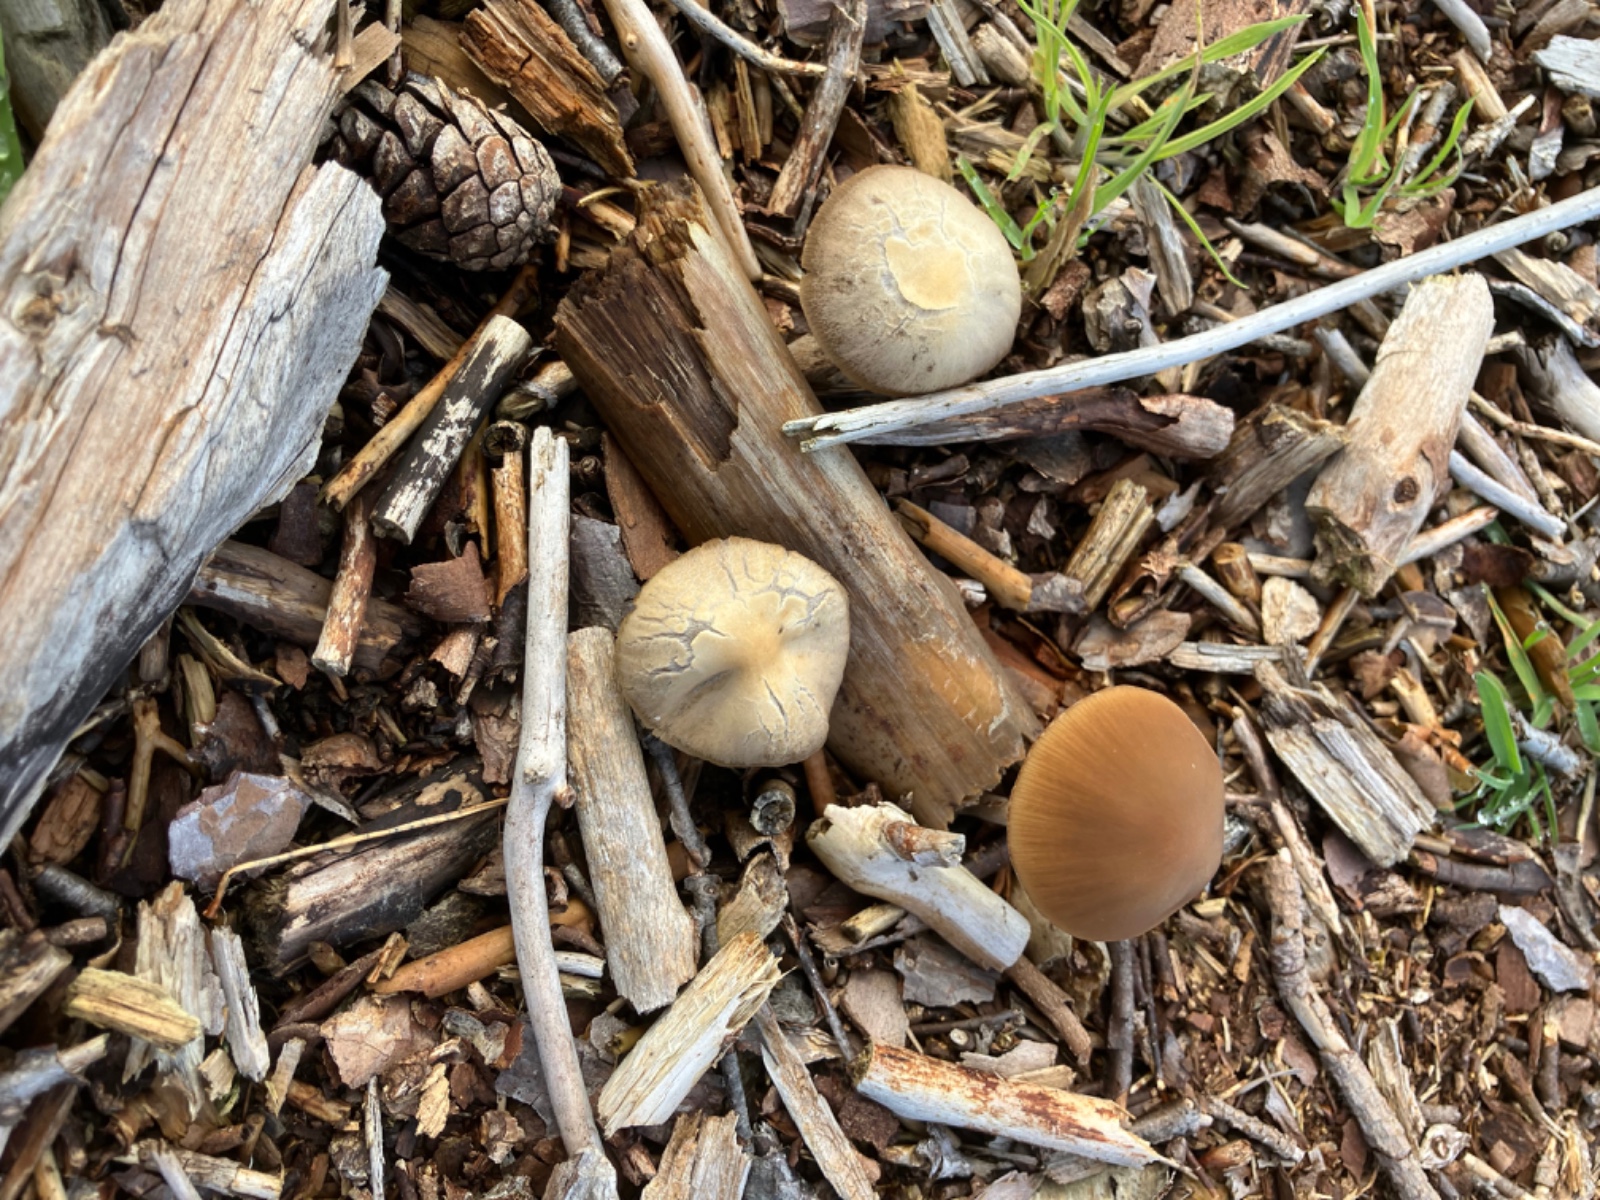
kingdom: Fungi
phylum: Basidiomycota
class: Agaricomycetes
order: Agaricales
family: Psathyrellaceae
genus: Psathyrella
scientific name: Psathyrella
